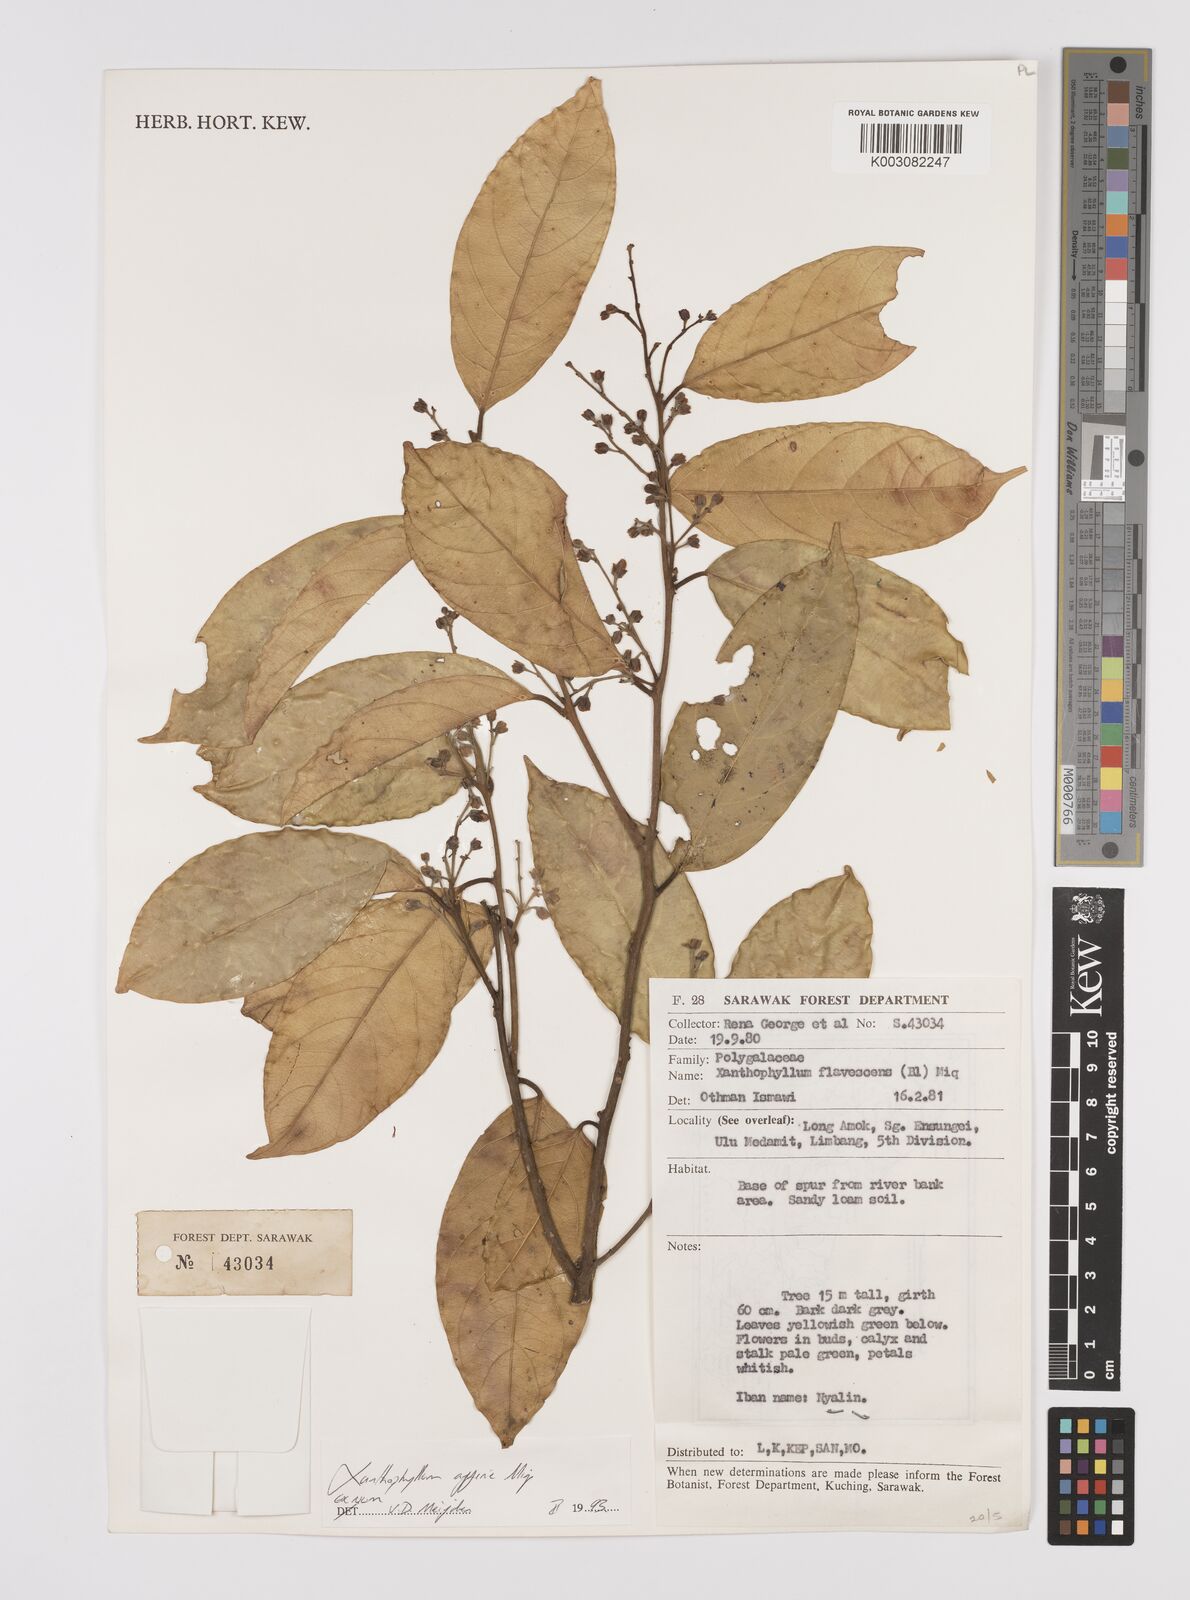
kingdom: Plantae
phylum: Tracheophyta
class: Magnoliopsida
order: Fabales
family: Polygalaceae
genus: Xanthophyllum
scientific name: Xanthophyllum flavescens
